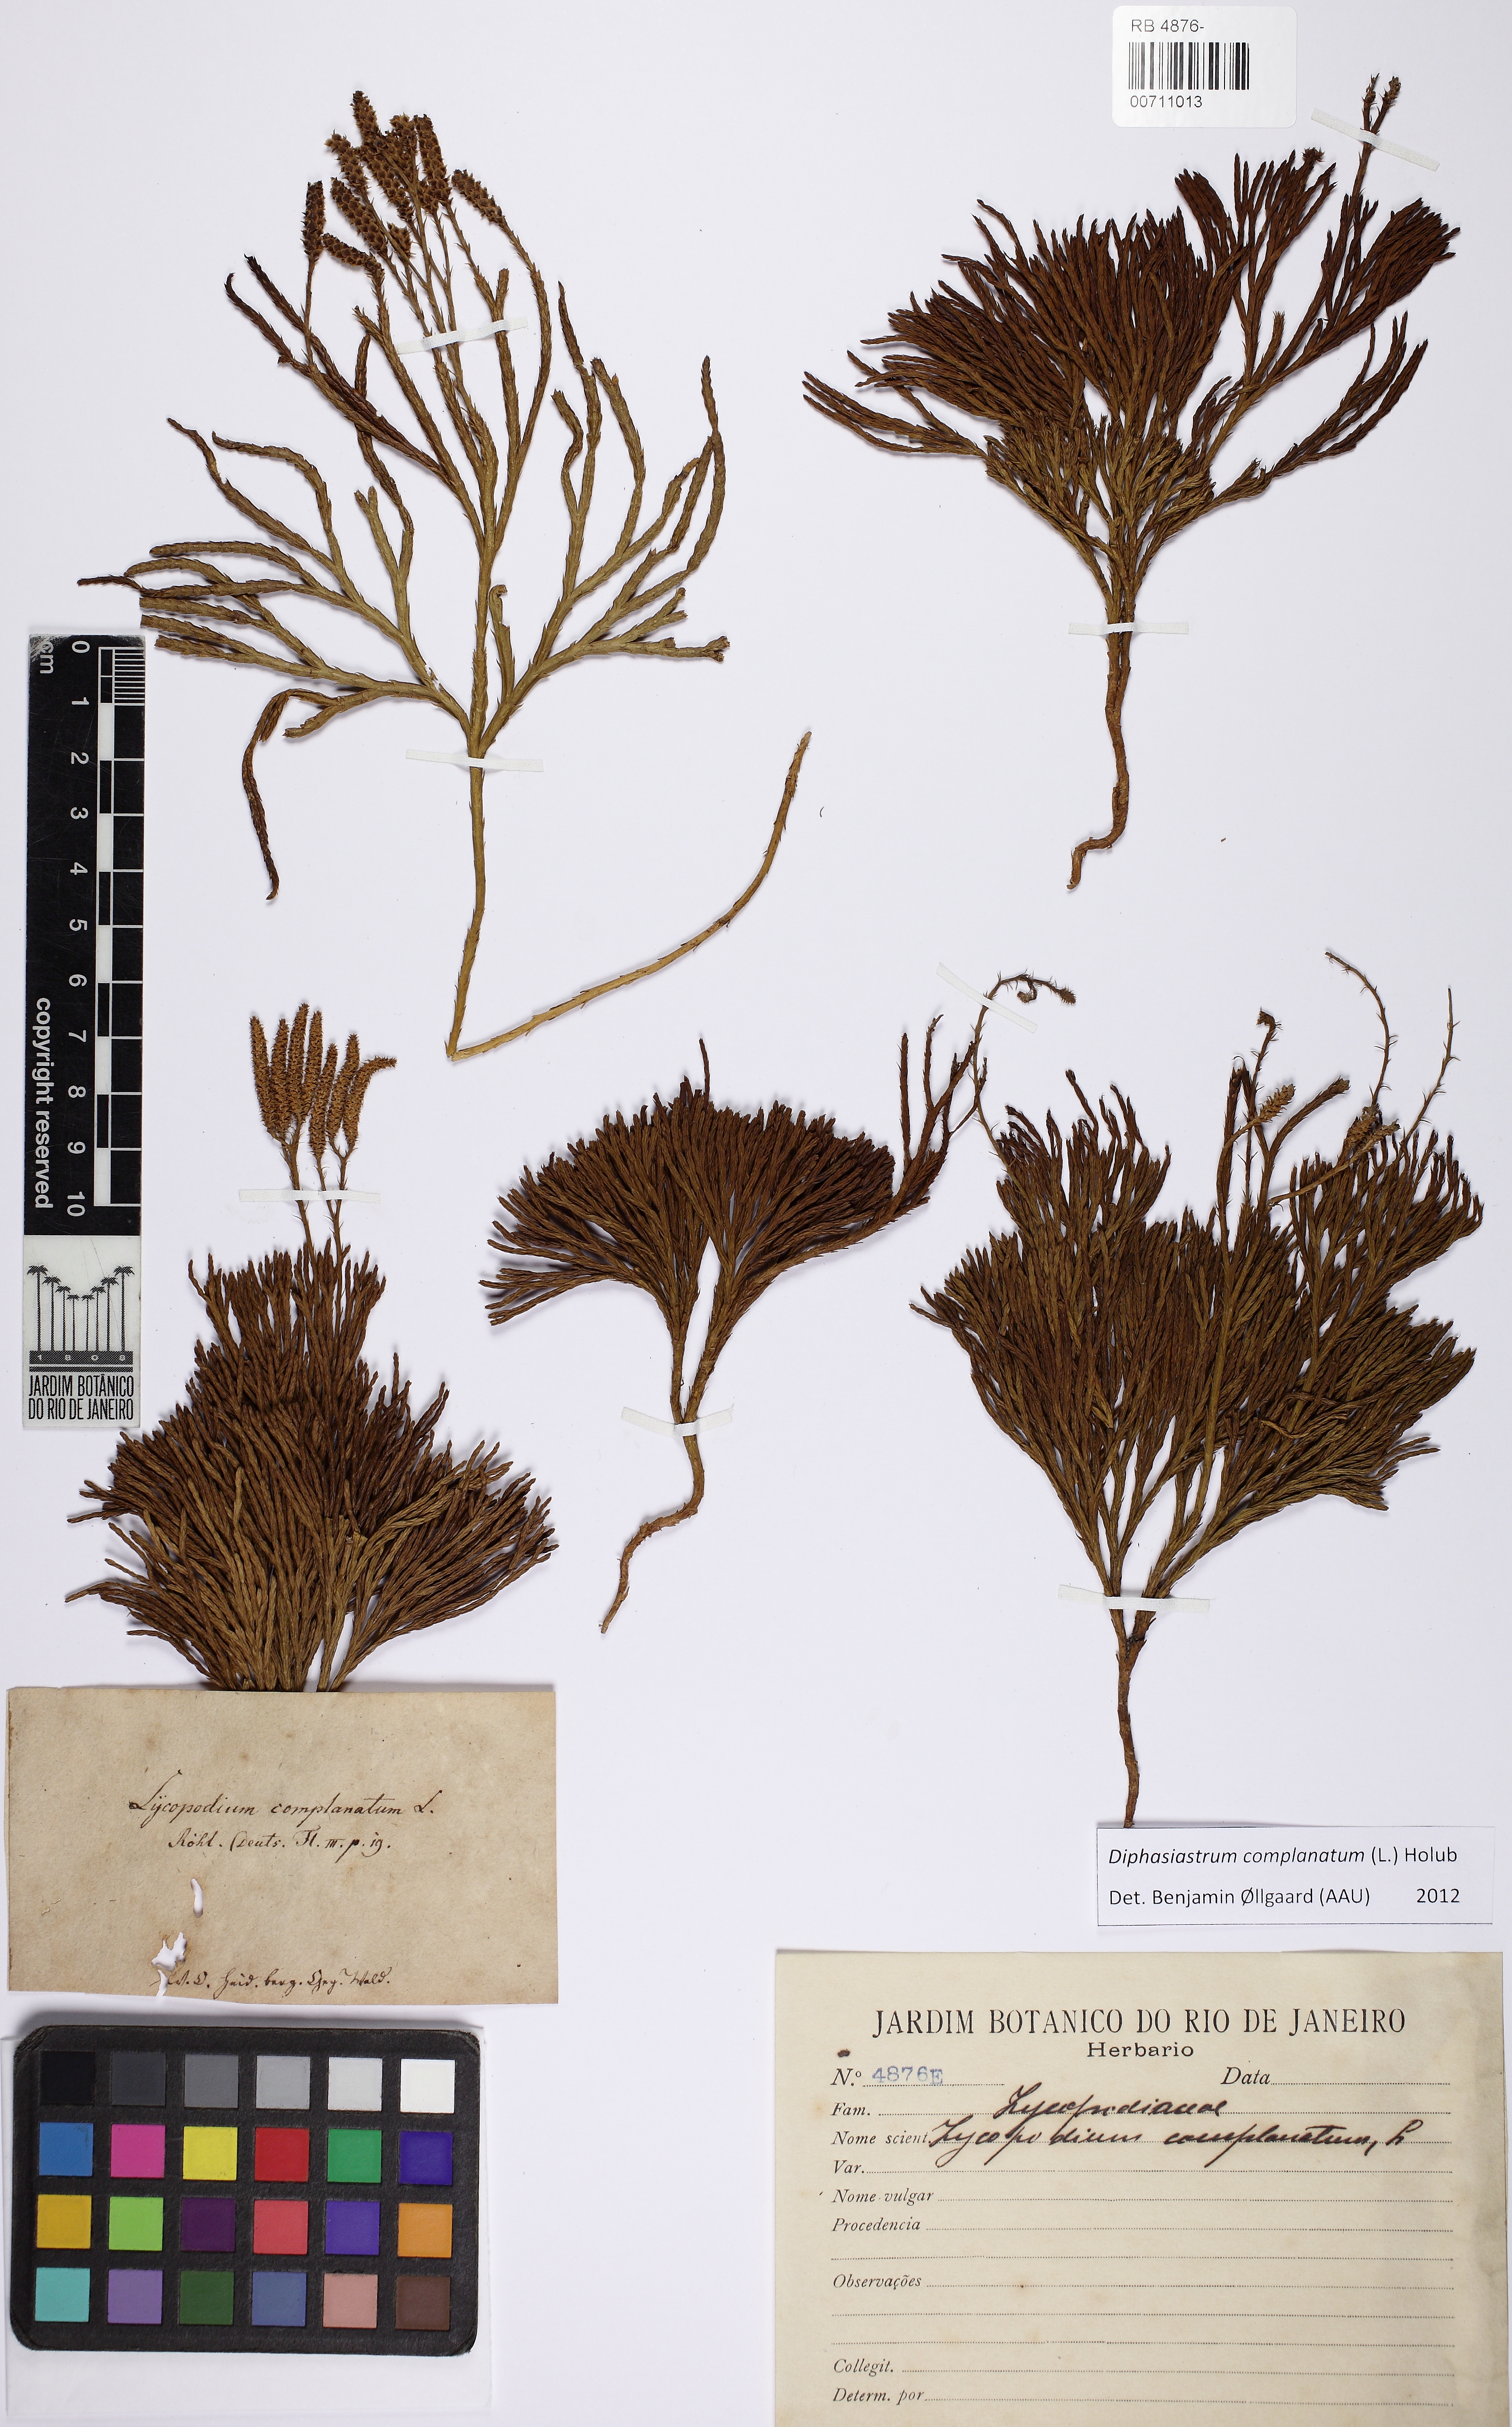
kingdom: Plantae
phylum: Tracheophyta
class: Lycopodiopsida
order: Lycopodiales
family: Lycopodiaceae
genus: Diphasiastrum
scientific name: Diphasiastrum complanatum
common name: Northern running-pine
